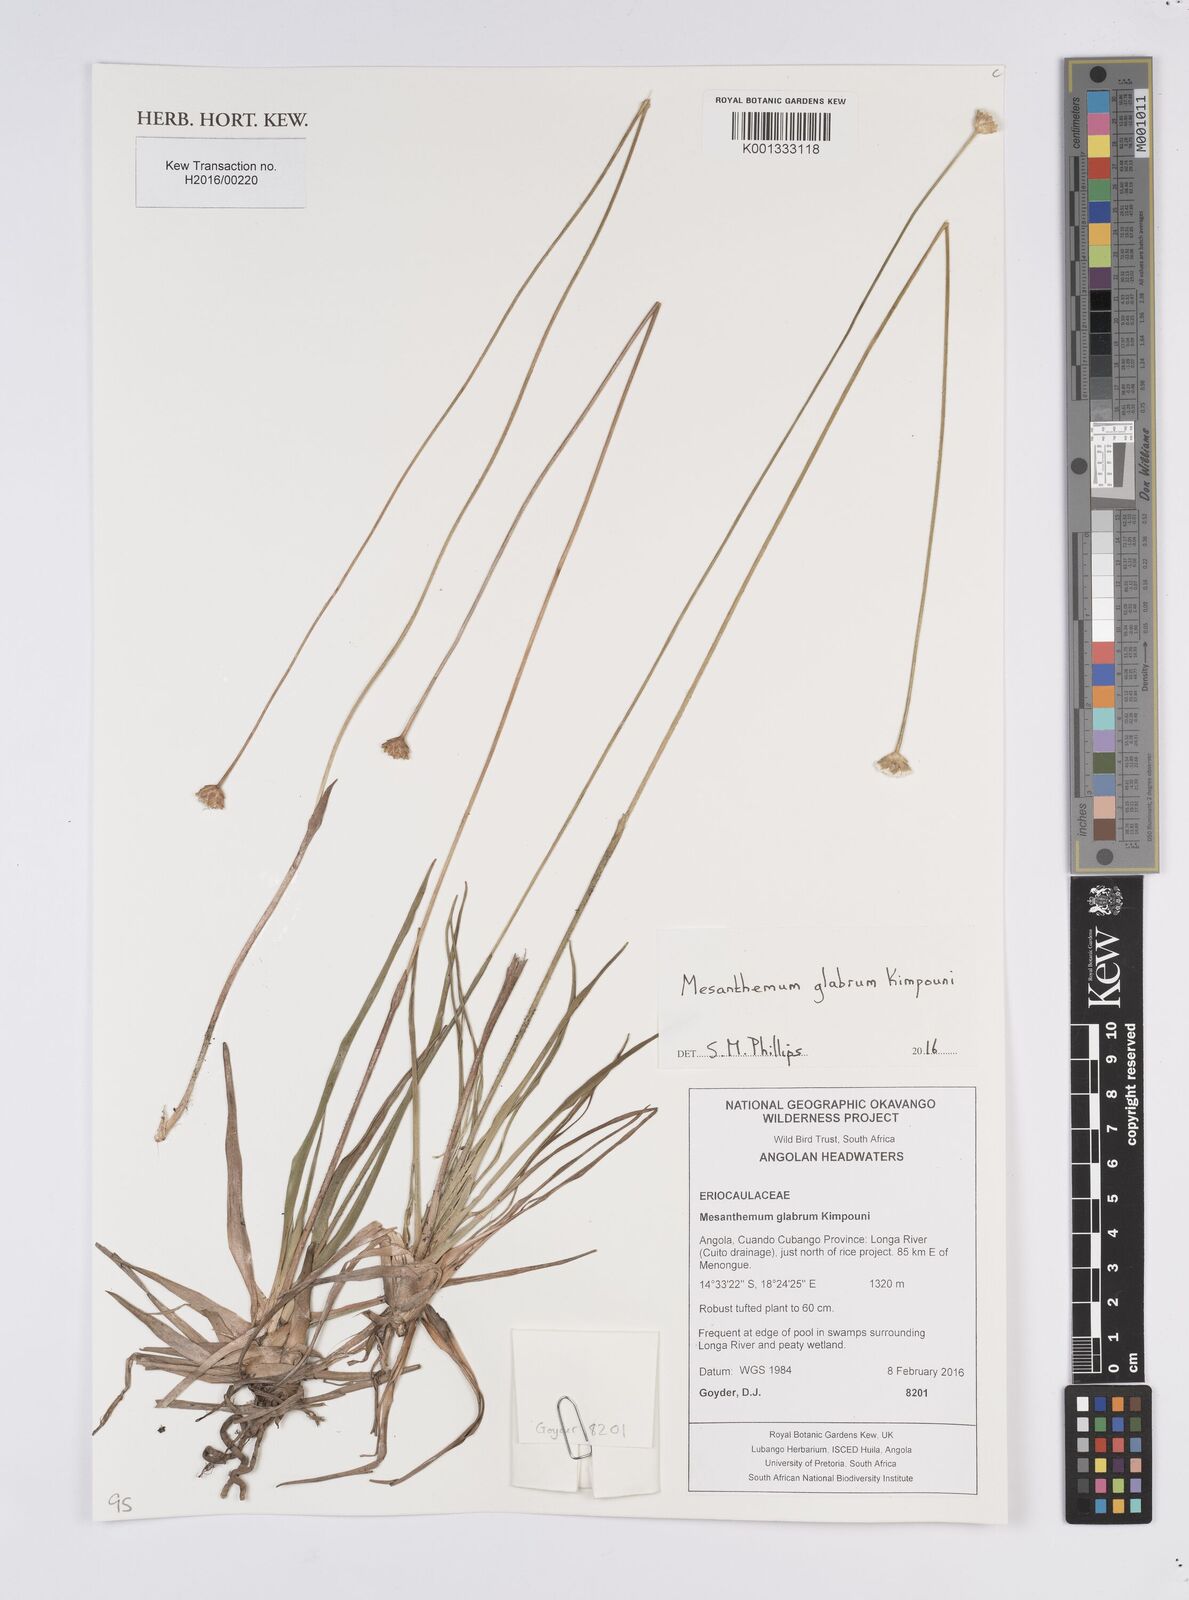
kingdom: Plantae
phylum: Tracheophyta
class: Liliopsida
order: Poales
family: Eriocaulaceae
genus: Mesanthemum
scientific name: Mesanthemum glabrum
